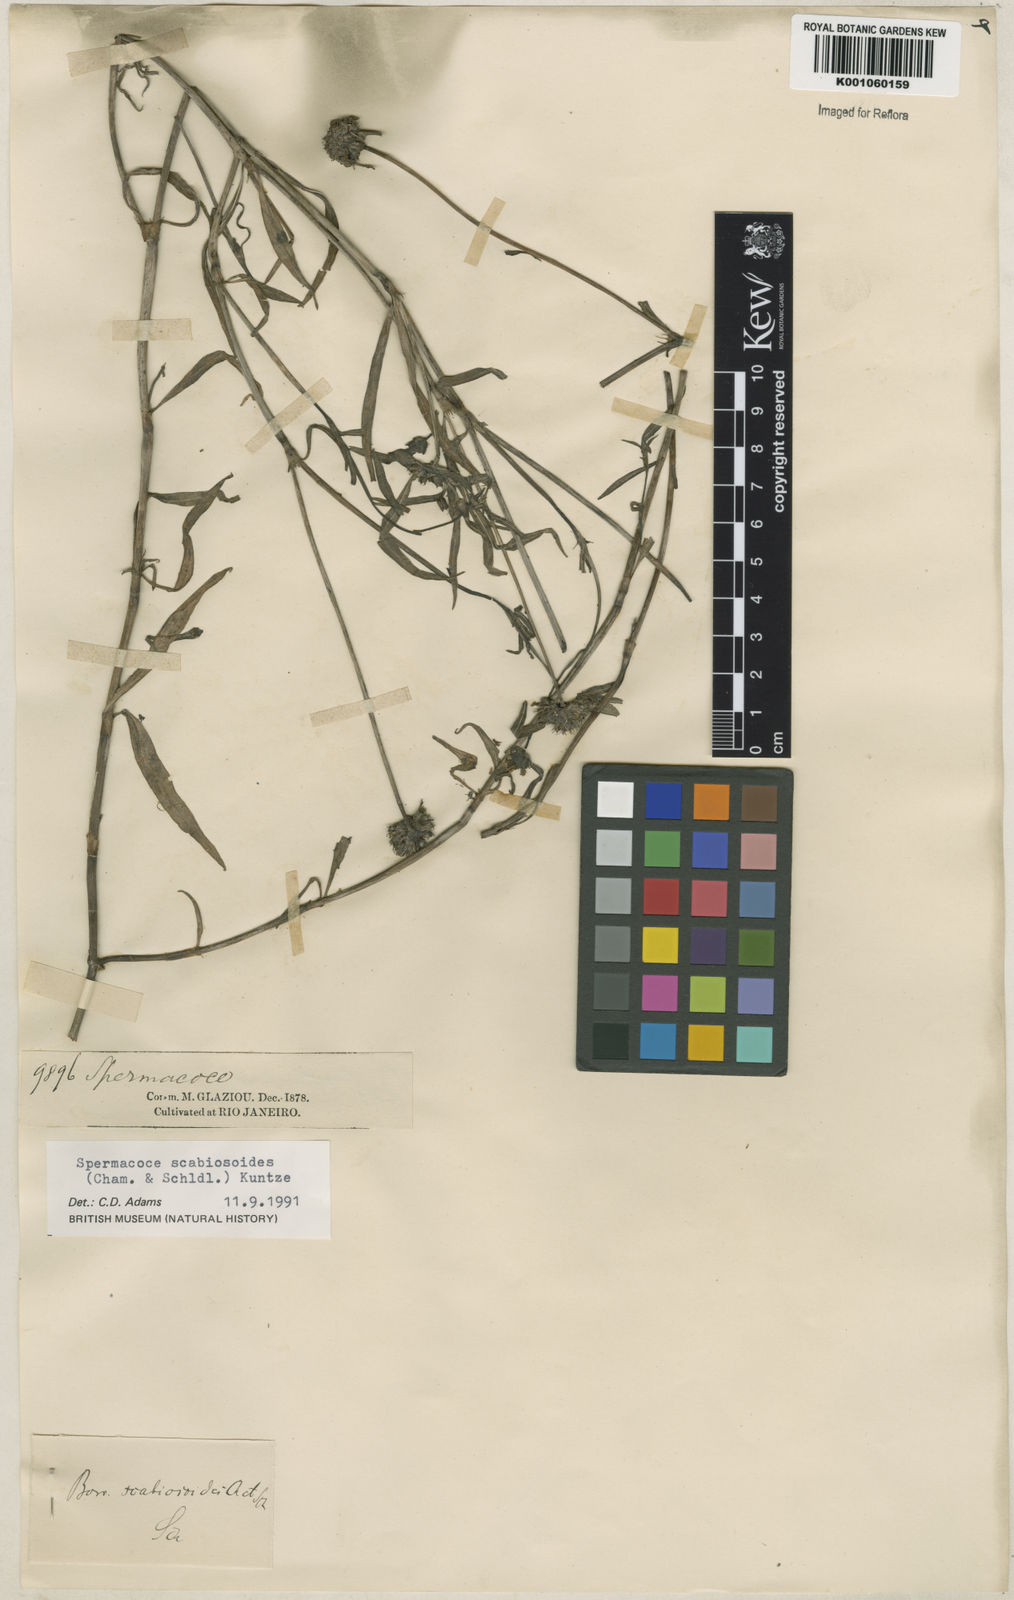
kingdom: Plantae
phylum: Tracheophyta
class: Magnoliopsida
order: Gentianales
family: Rubiaceae
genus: Spermacoce
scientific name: Spermacoce scabiosoides
